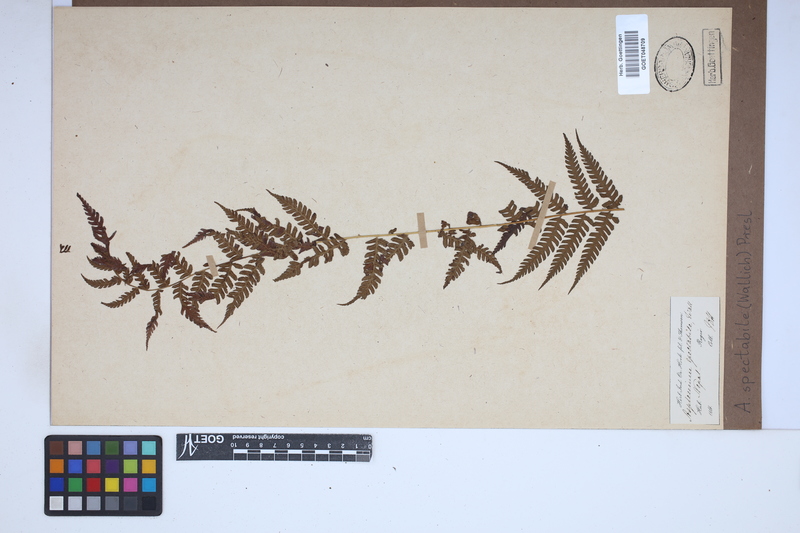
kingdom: Plantae
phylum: Tracheophyta
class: Polypodiopsida
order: Polypodiales
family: Athyriaceae
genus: Diplazium
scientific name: Diplazium spectabile
